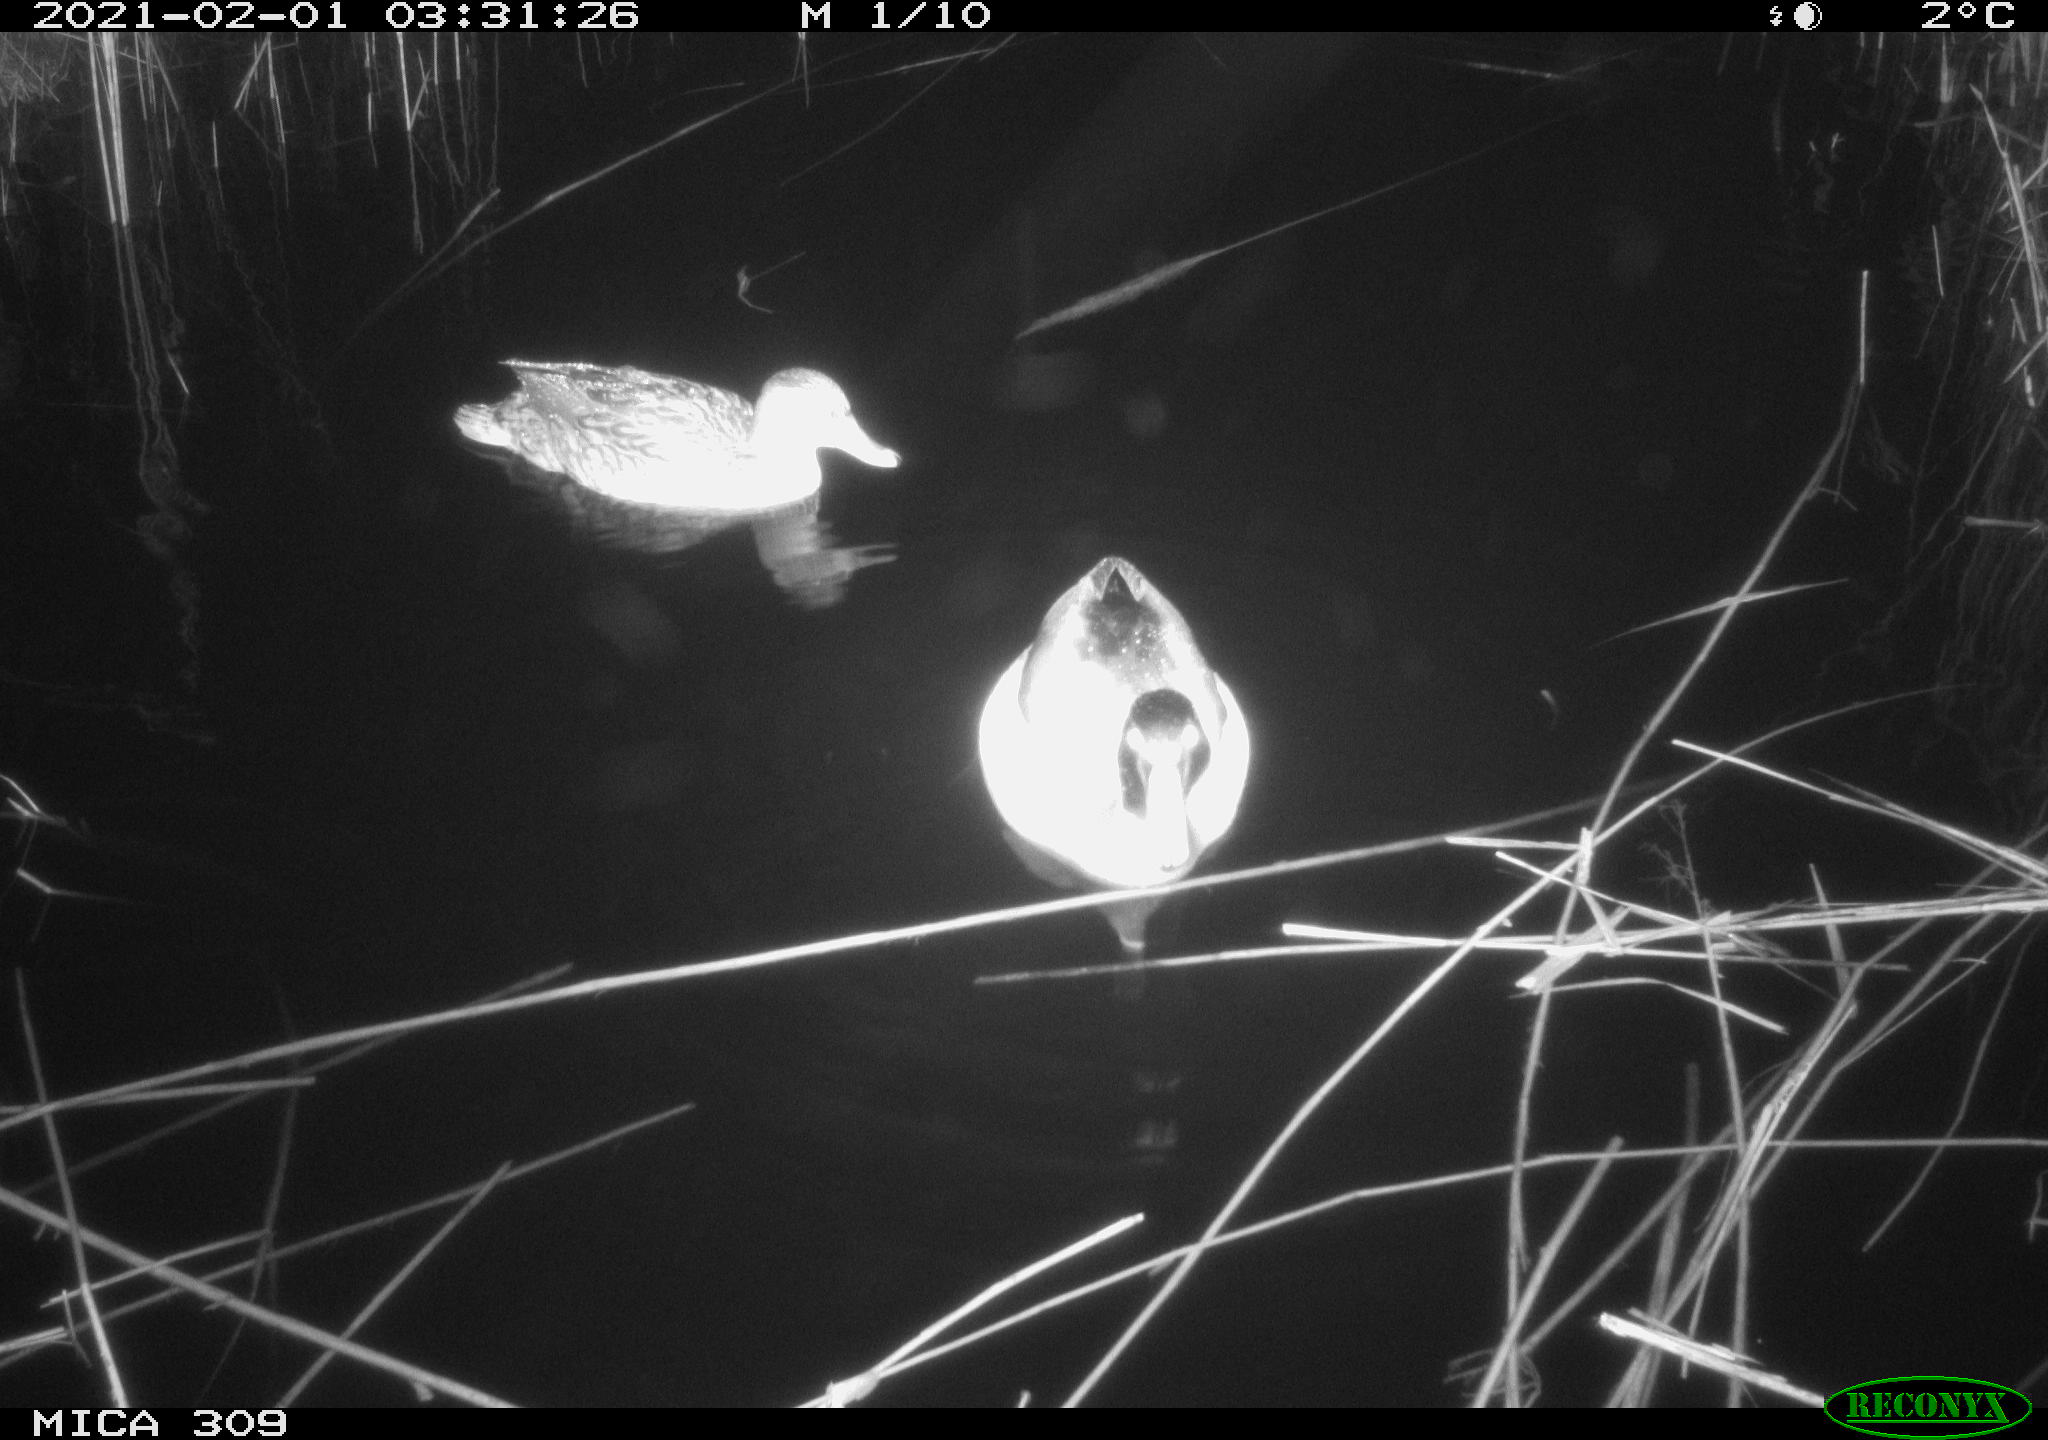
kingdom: Animalia
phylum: Chordata
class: Aves
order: Anseriformes
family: Anatidae
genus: Anas
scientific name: Anas platyrhynchos
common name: Mallard
